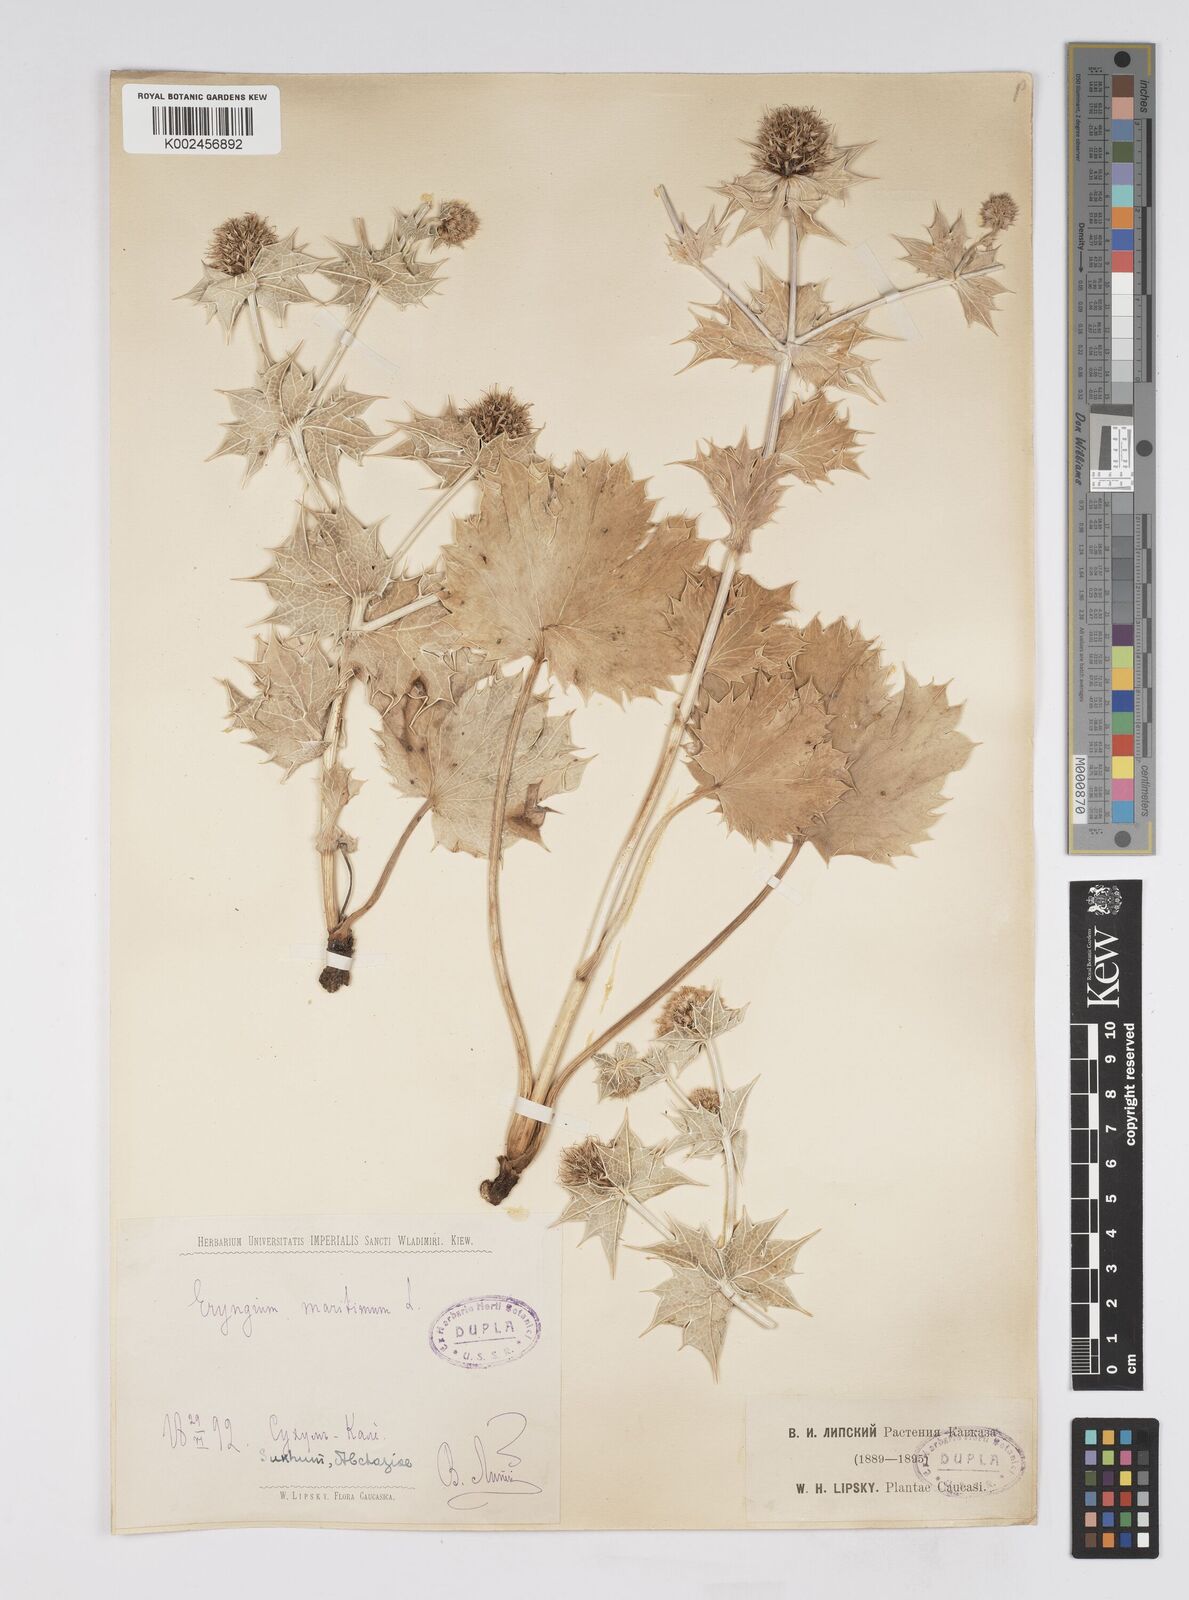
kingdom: Plantae
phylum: Tracheophyta
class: Magnoliopsida
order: Apiales
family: Apiaceae
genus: Eryngium
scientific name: Eryngium maritimum
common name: Sea-holly
